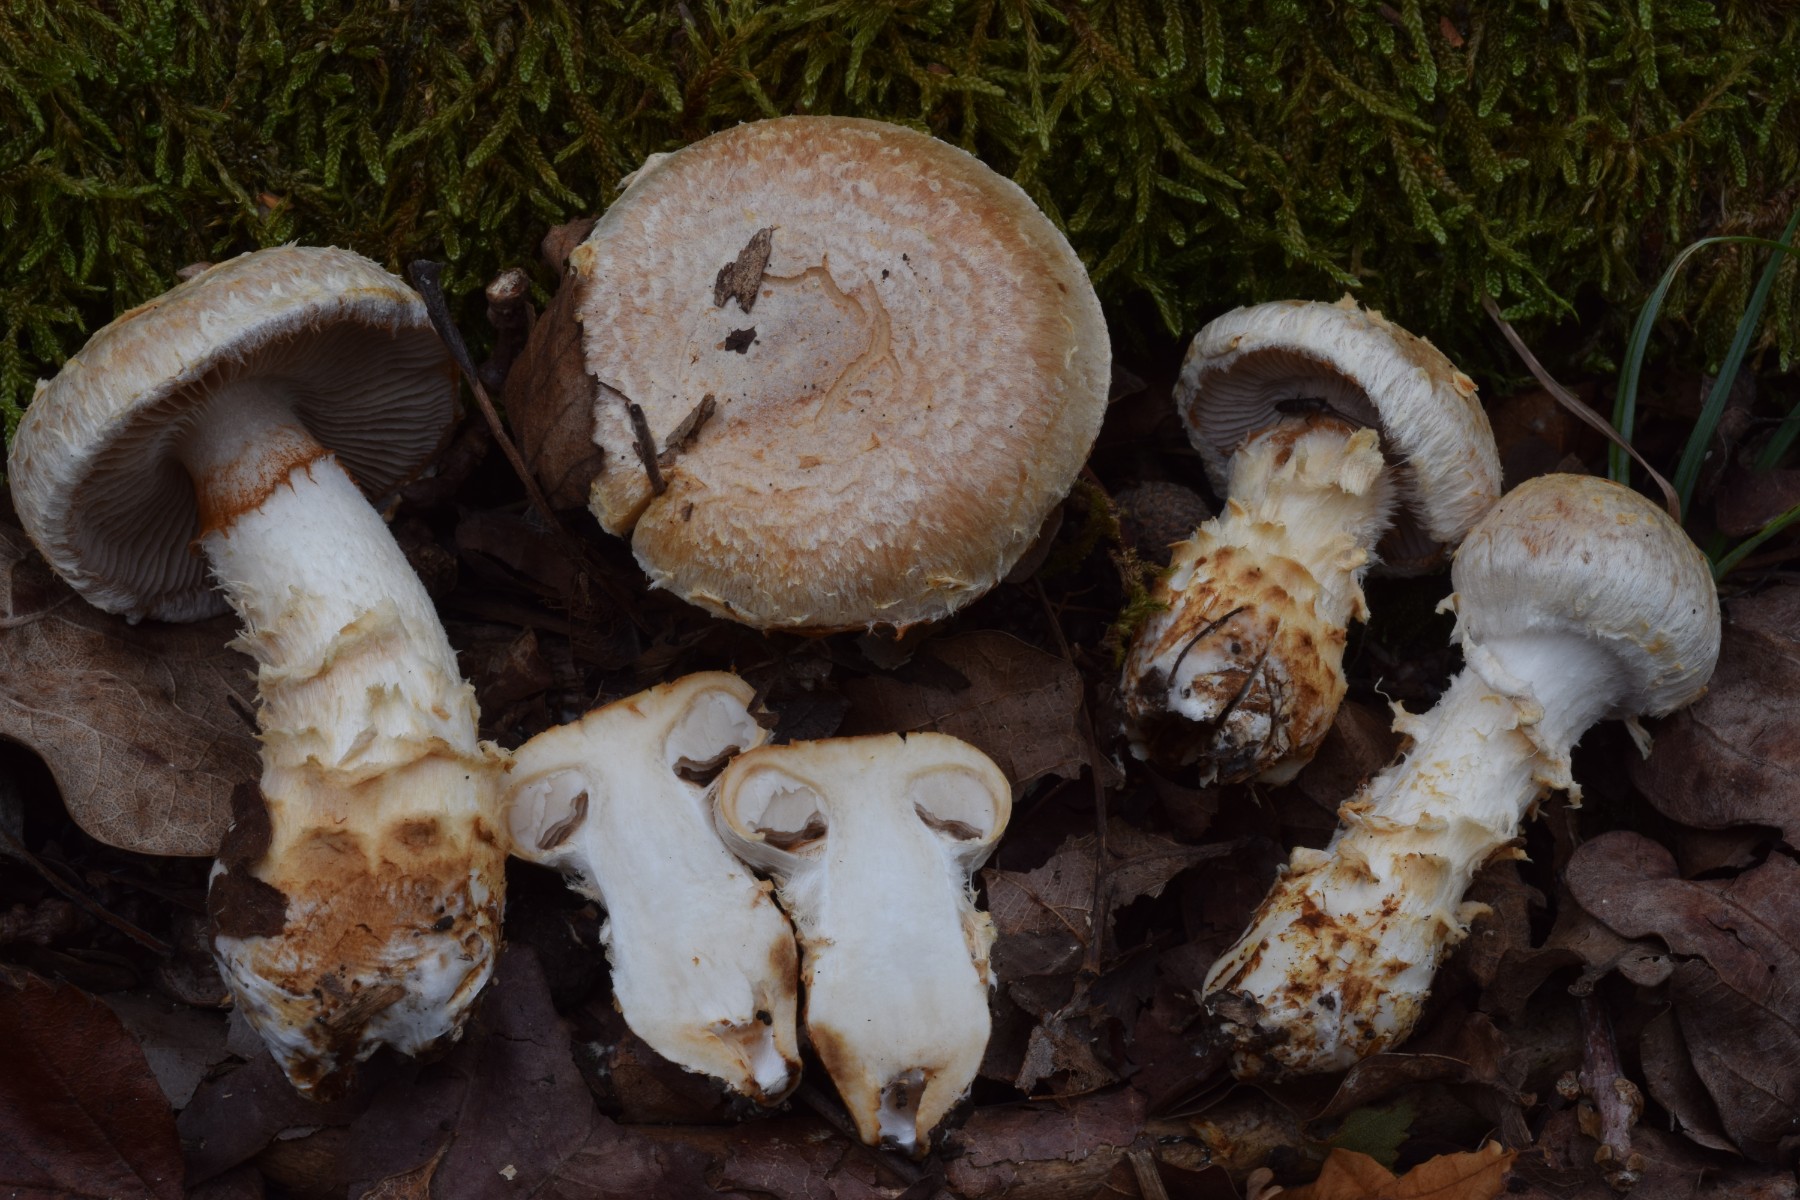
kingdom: Fungi
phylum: Basidiomycota
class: Agaricomycetes
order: Agaricales
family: Cortinariaceae
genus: Phlegmacium
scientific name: Phlegmacium pseudovulpinum
